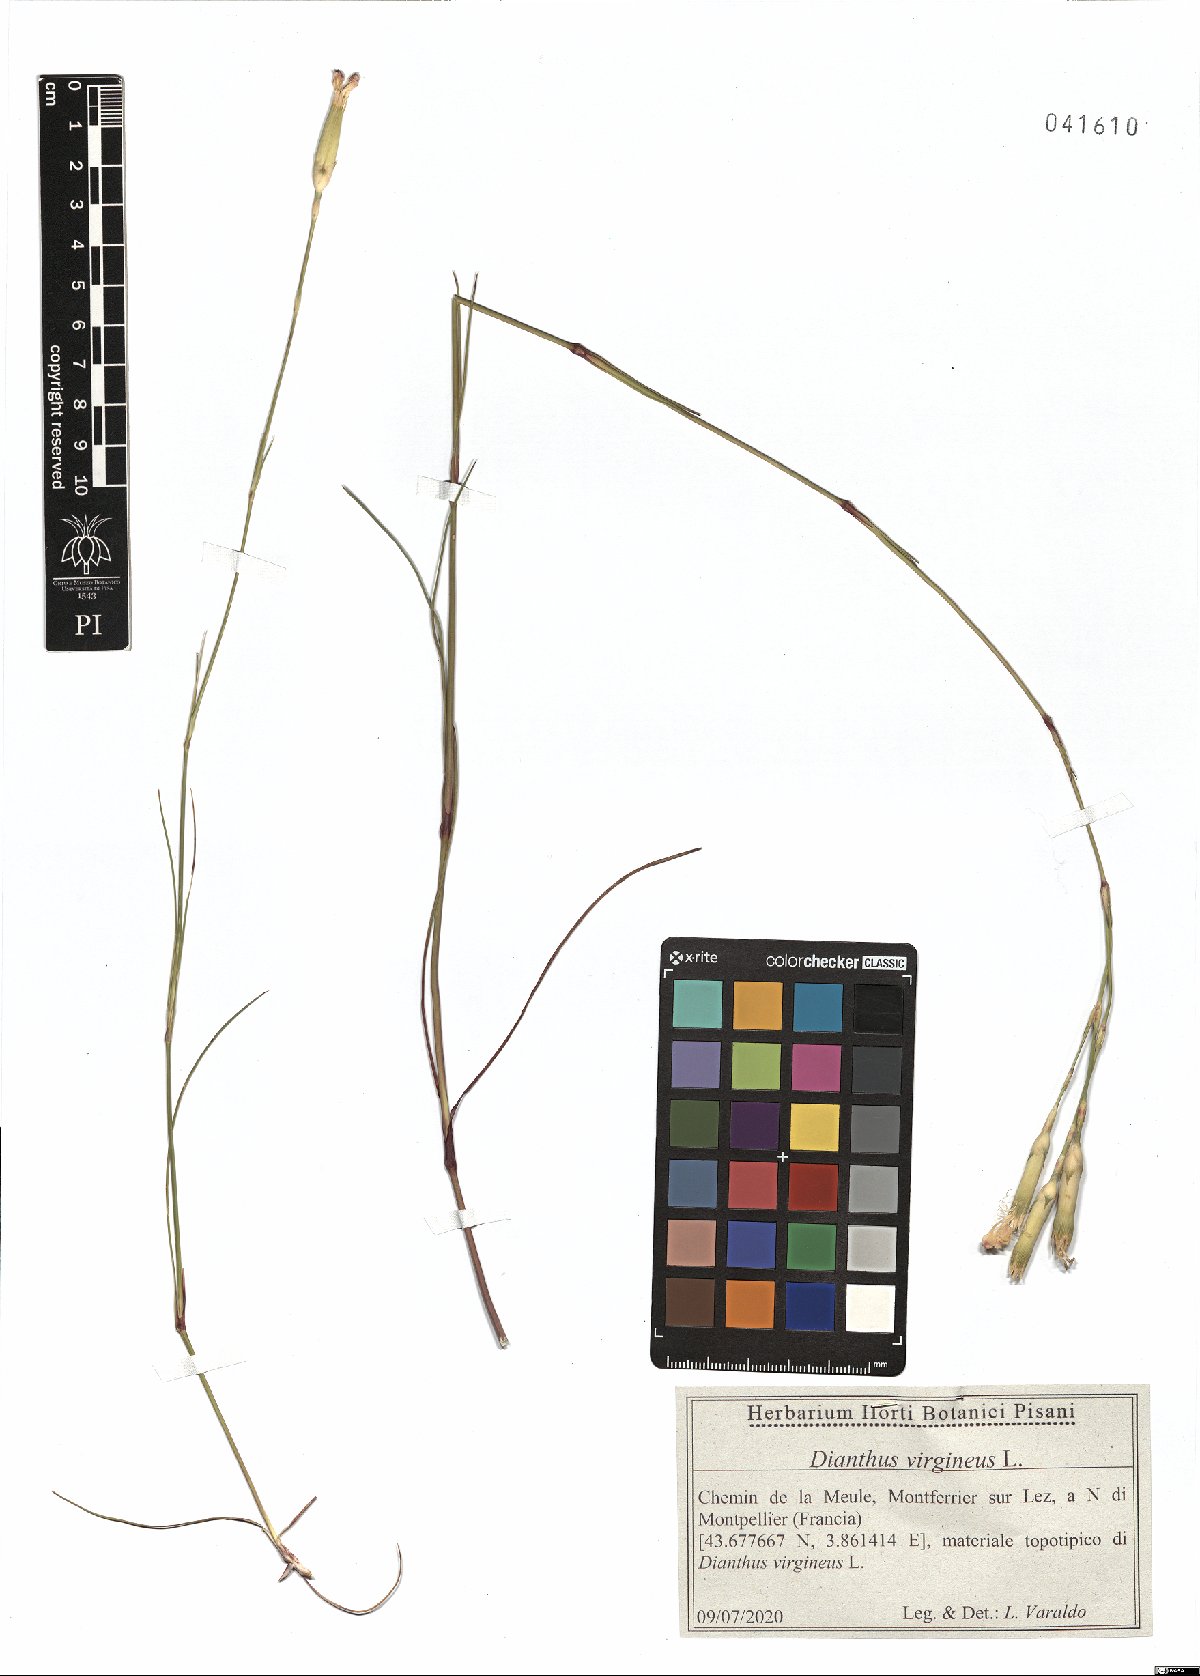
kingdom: Plantae
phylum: Tracheophyta
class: Magnoliopsida
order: Caryophyllales
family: Caryophyllaceae
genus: Dianthus
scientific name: Dianthus virgineus
